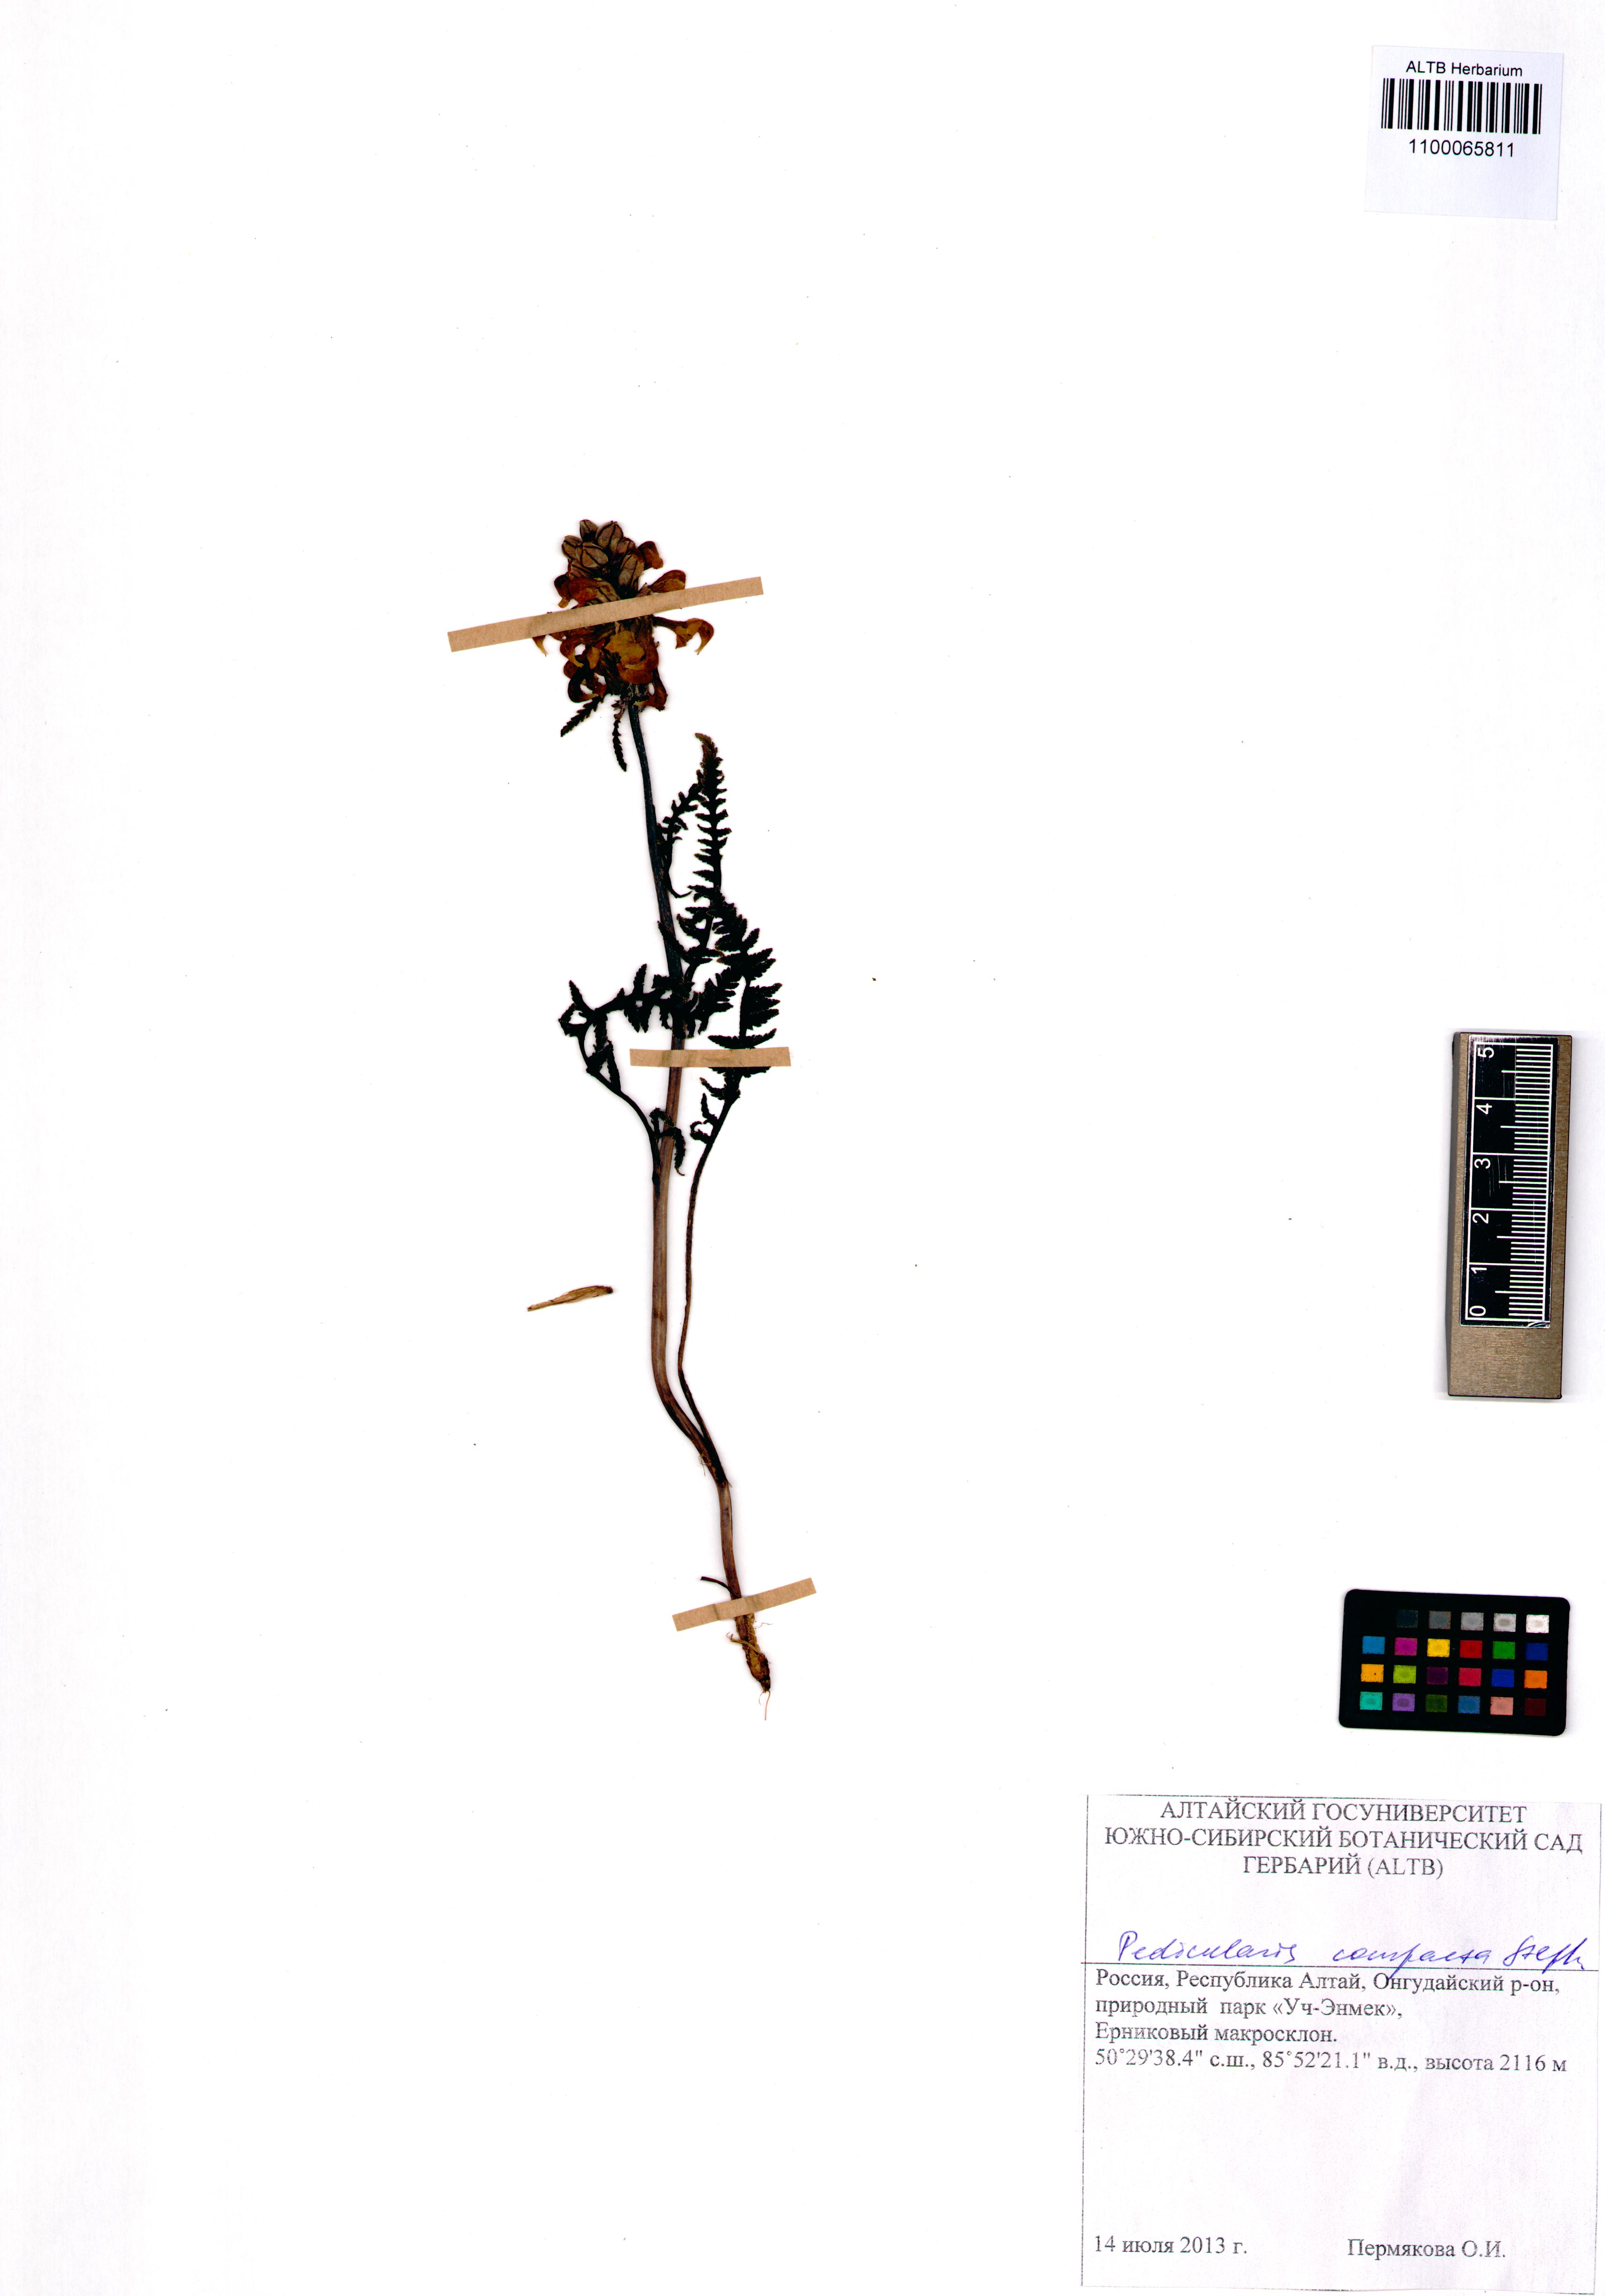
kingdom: Plantae
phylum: Tracheophyta
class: Magnoliopsida
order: Lamiales
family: Orobanchaceae
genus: Pedicularis
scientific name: Pedicularis compacta
